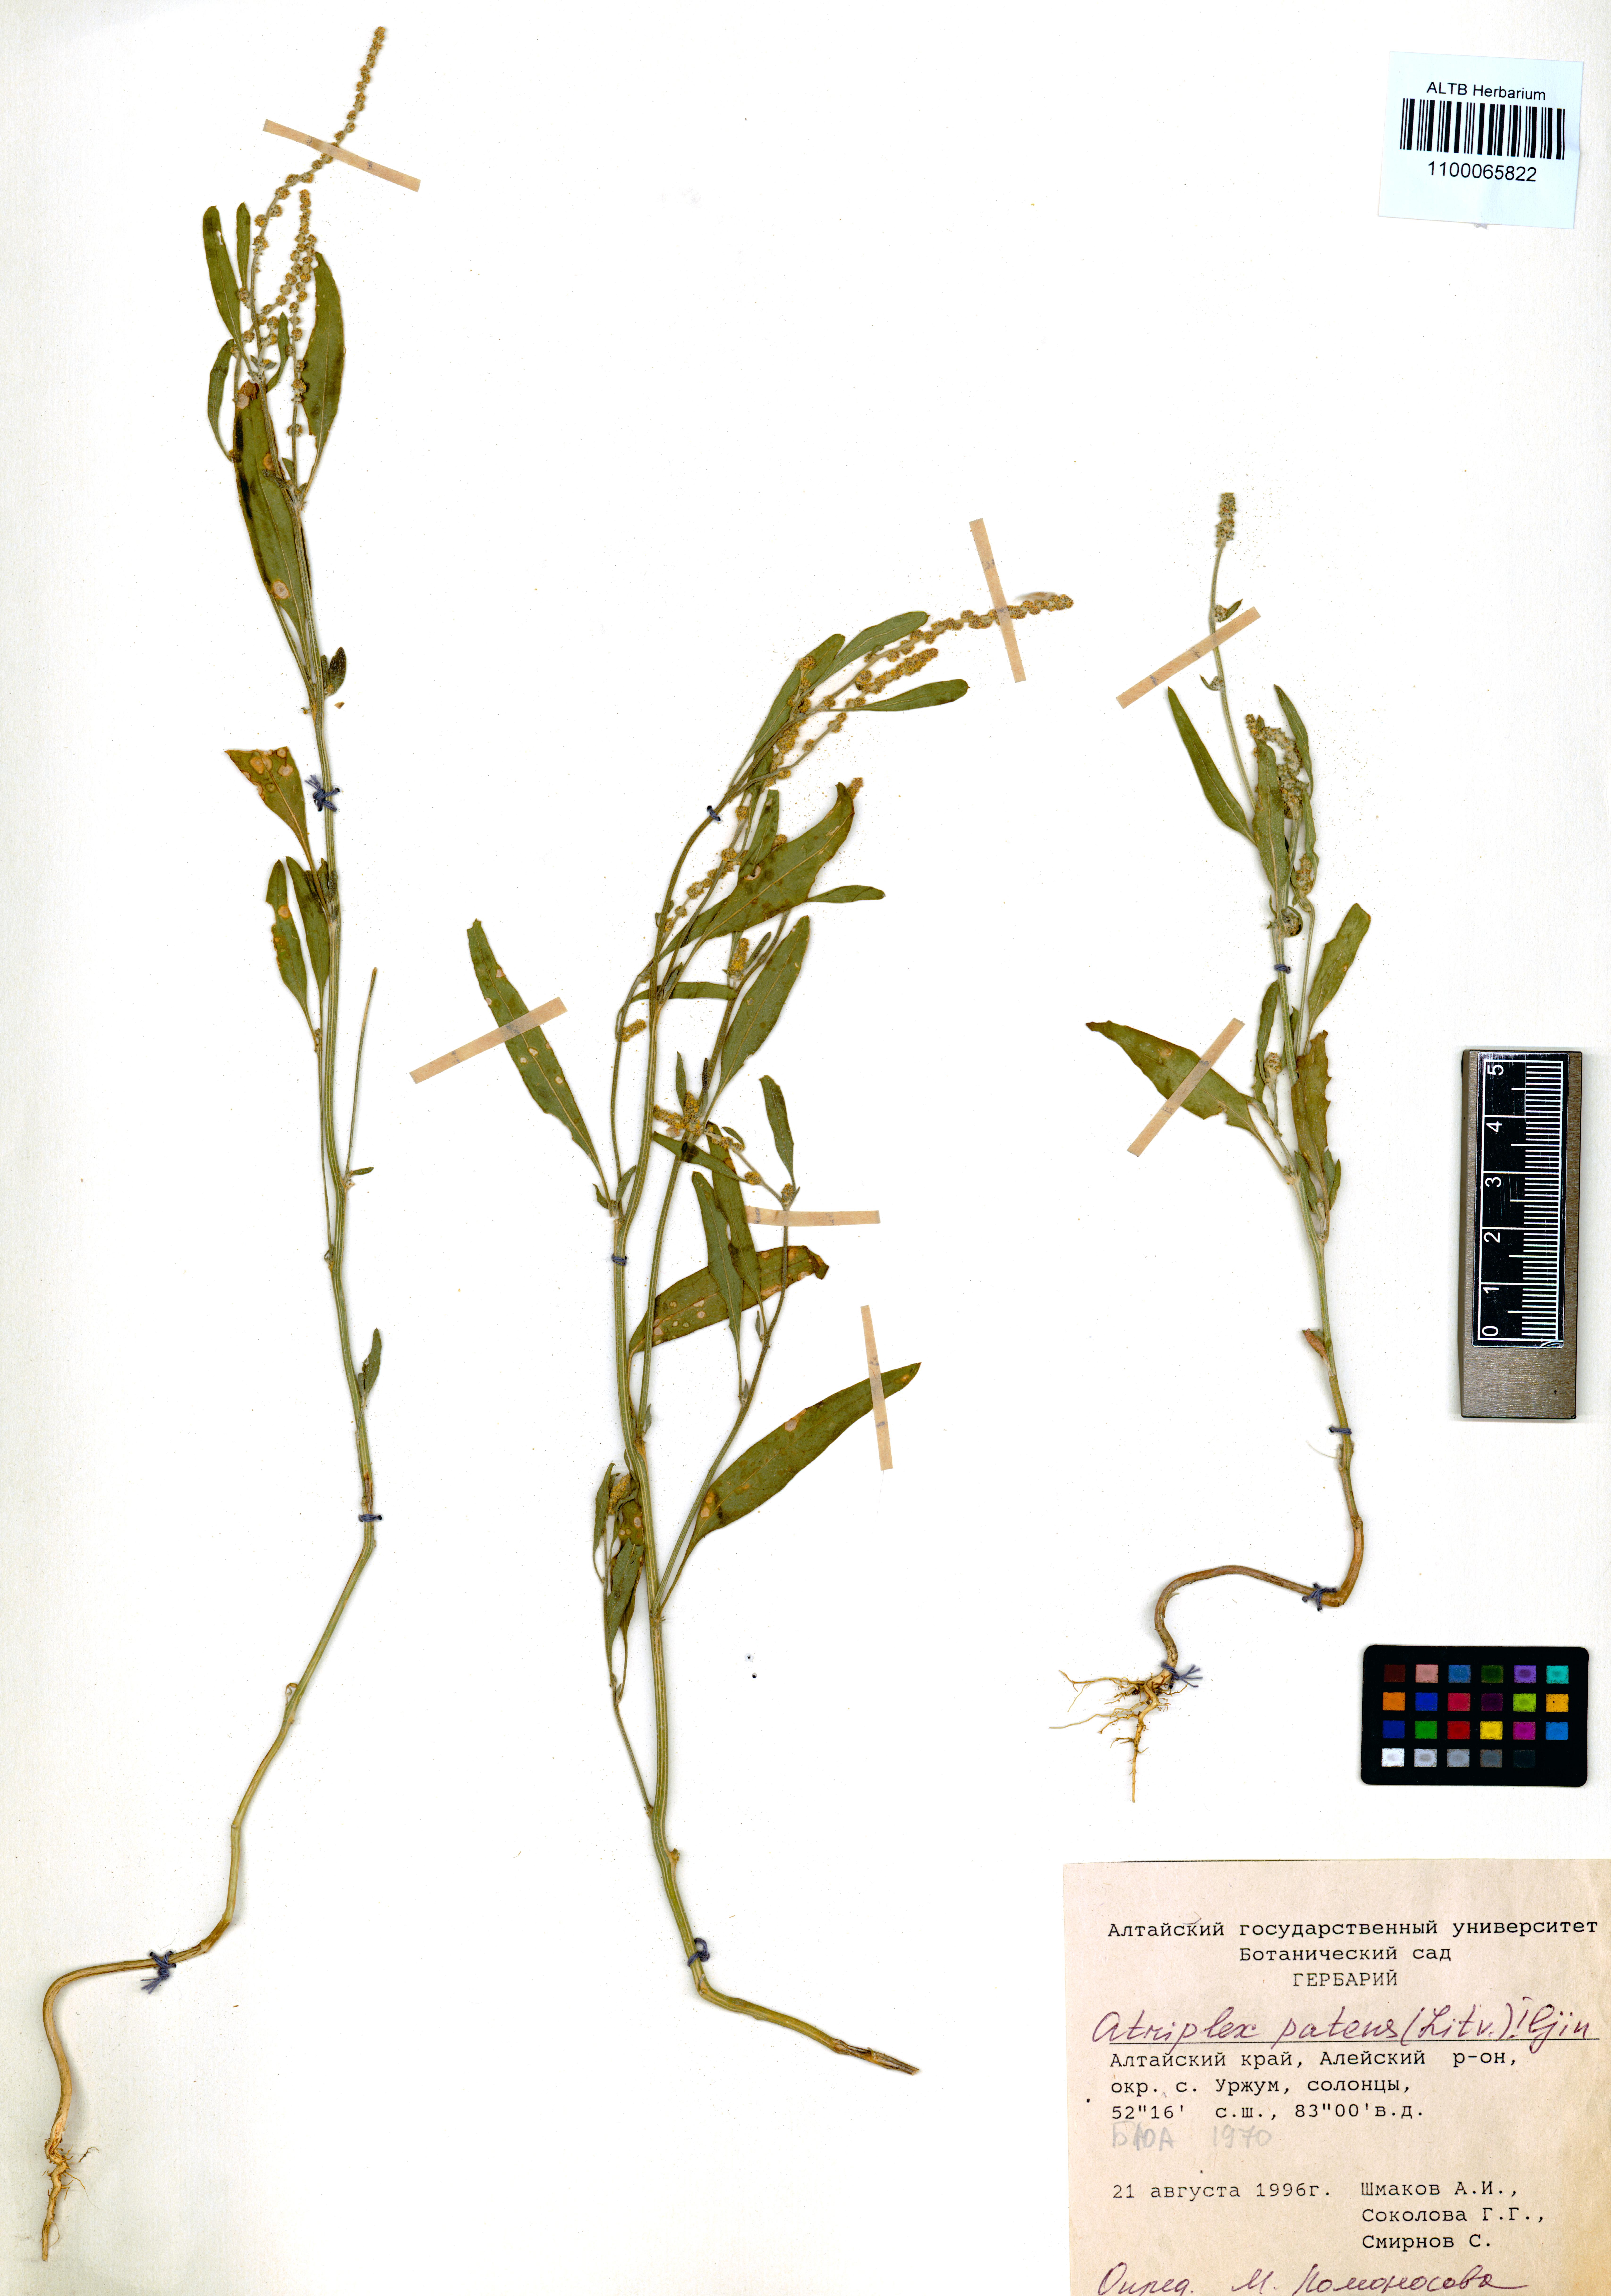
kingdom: Plantae
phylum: Tracheophyta
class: Magnoliopsida
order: Caryophyllales
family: Amaranthaceae
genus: Atriplex
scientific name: Atriplex patens
